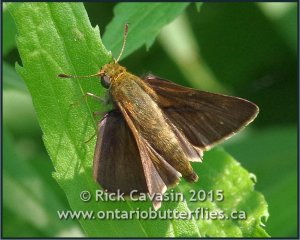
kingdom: Animalia
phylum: Arthropoda
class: Insecta
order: Lepidoptera
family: Hesperiidae
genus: Euphyes
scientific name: Euphyes vestris
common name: Dun Skipper
